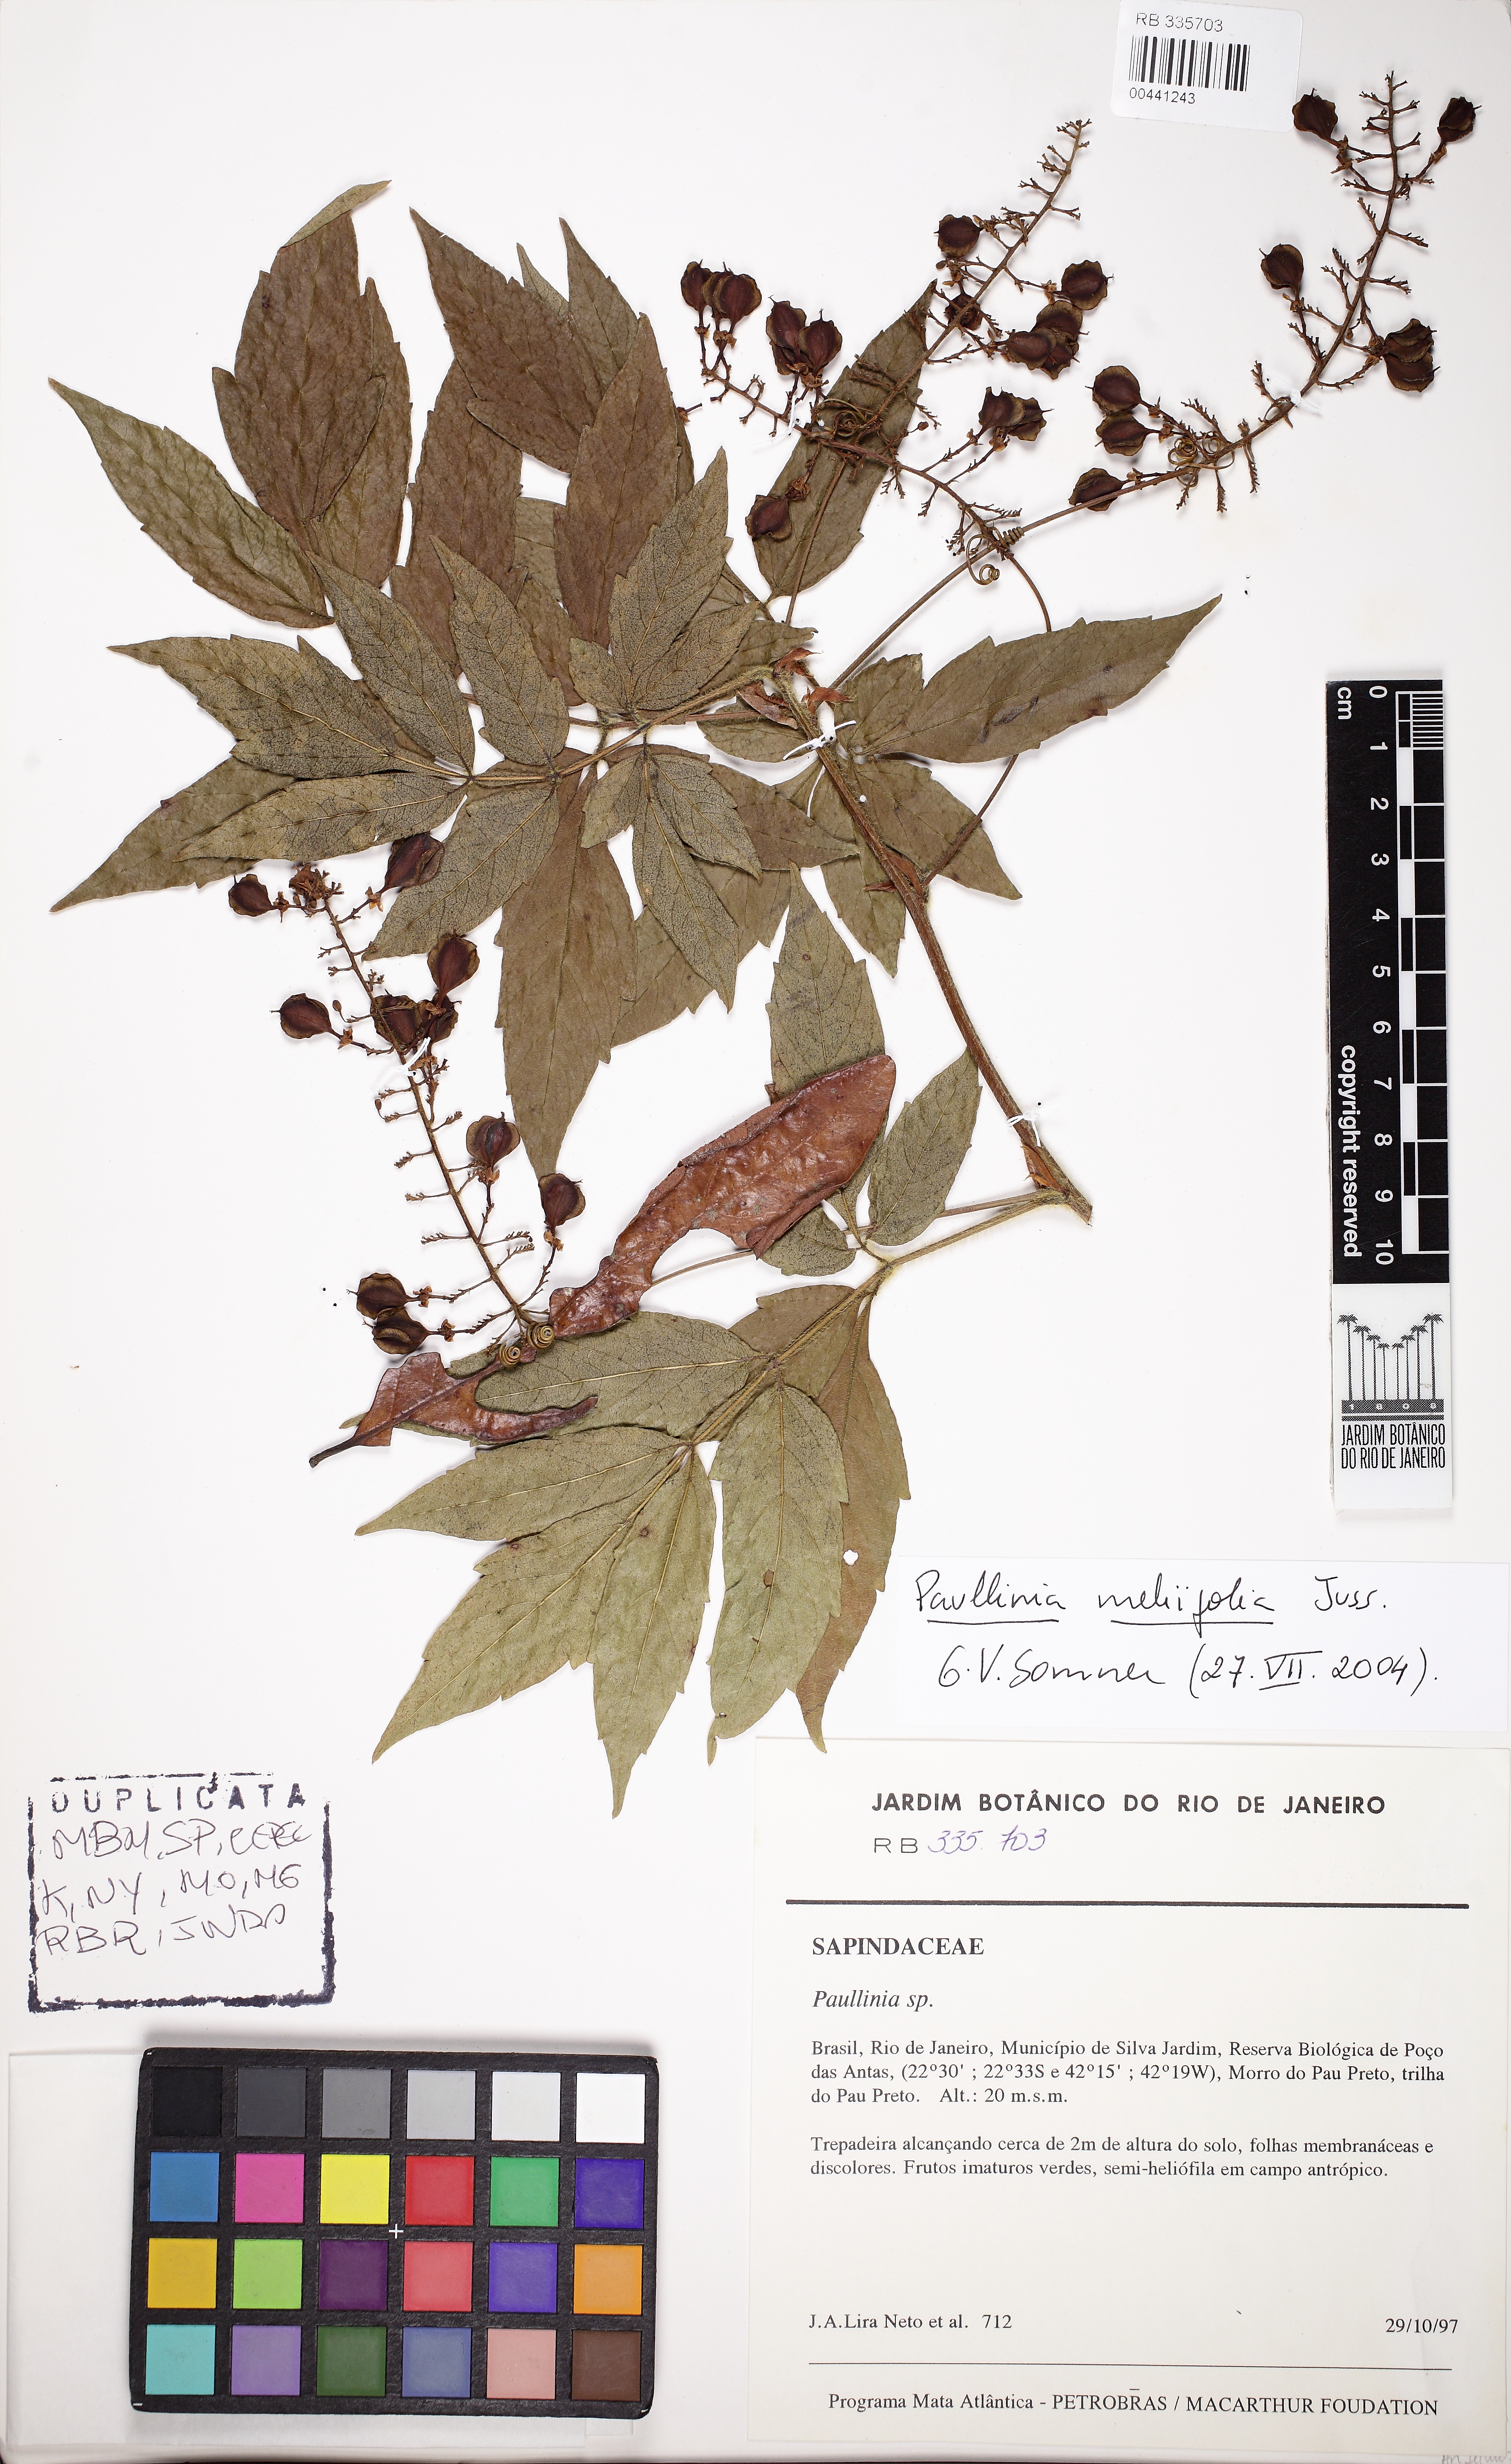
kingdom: Plantae
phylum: Tracheophyta
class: Magnoliopsida
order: Sapindales
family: Sapindaceae
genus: Paullinia
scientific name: Paullinia meliifolia
